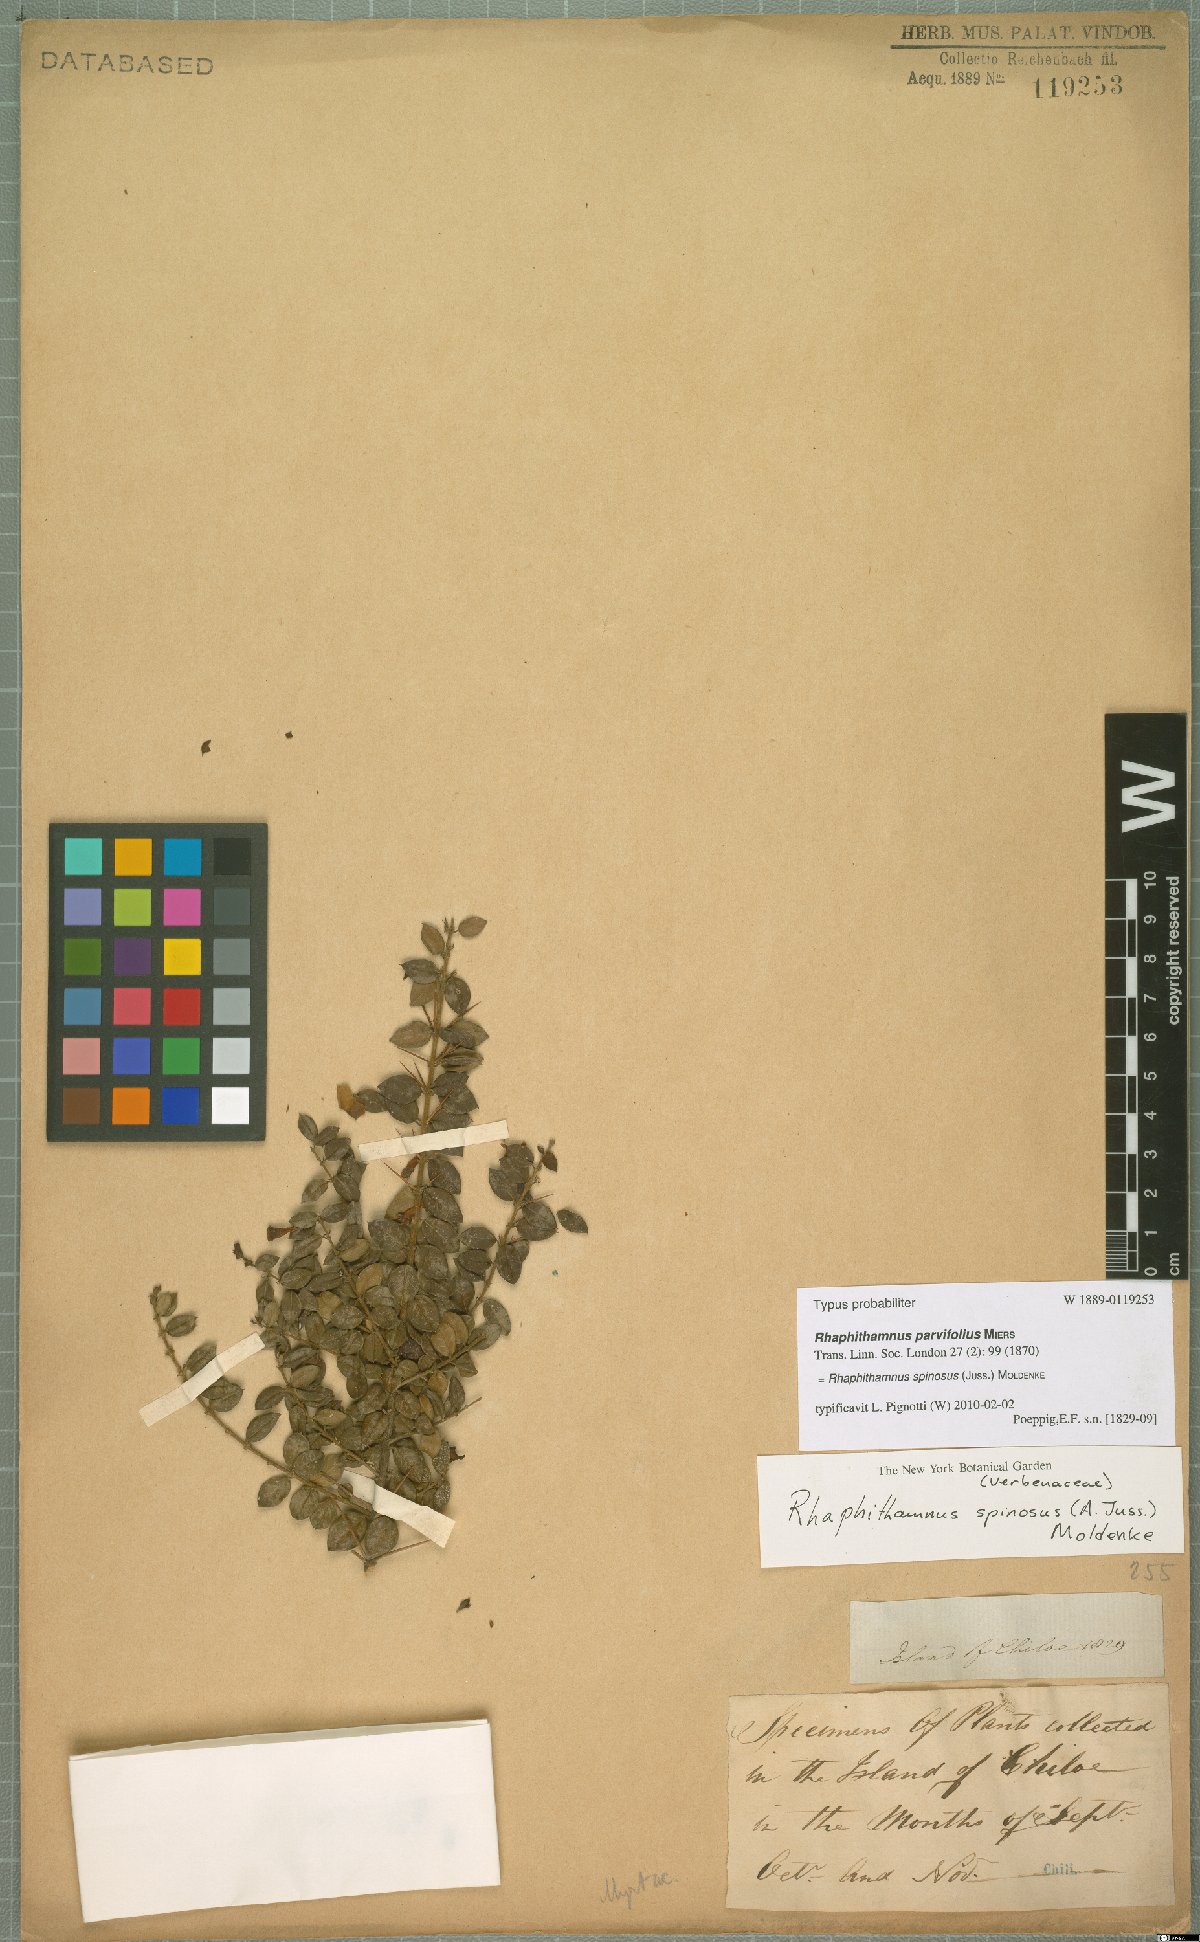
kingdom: Plantae
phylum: Tracheophyta
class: Magnoliopsida
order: Lamiales
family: Verbenaceae
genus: Rhaphithamnus
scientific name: Rhaphithamnus spinosus
